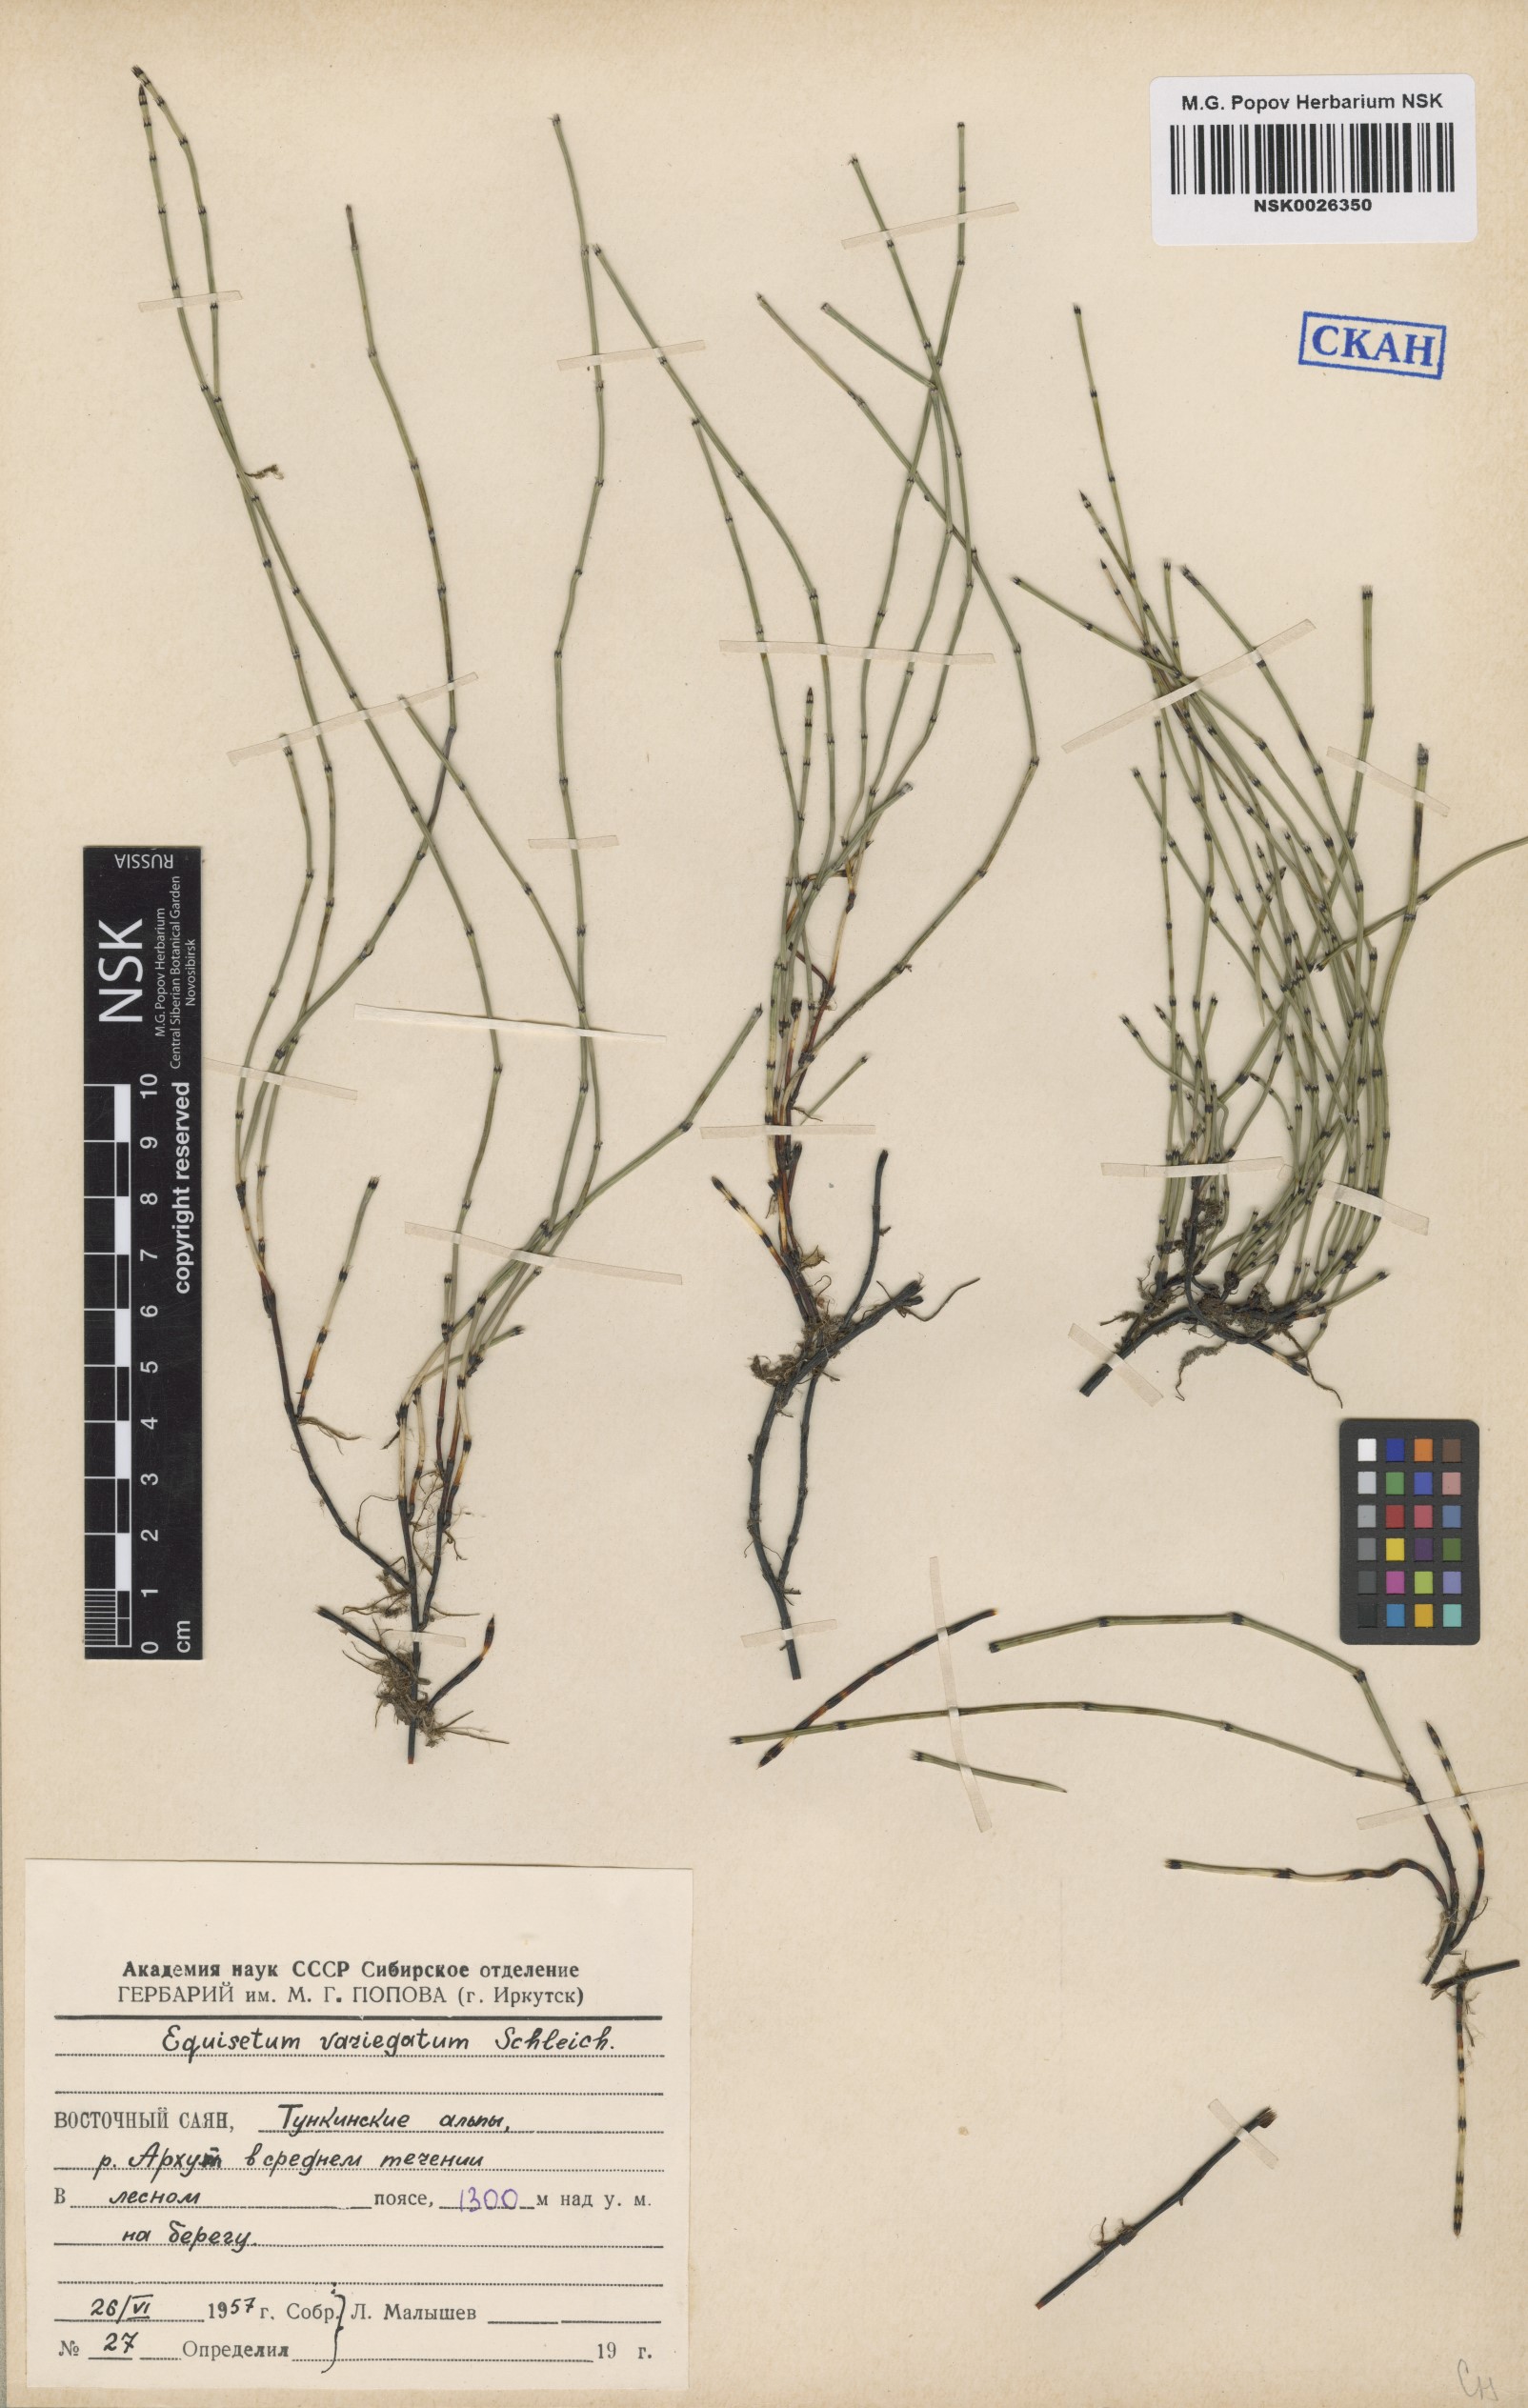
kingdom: Plantae
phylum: Tracheophyta
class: Polypodiopsida
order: Equisetales
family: Equisetaceae
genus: Equisetum
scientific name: Equisetum variegatum
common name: Variegated horsetail
